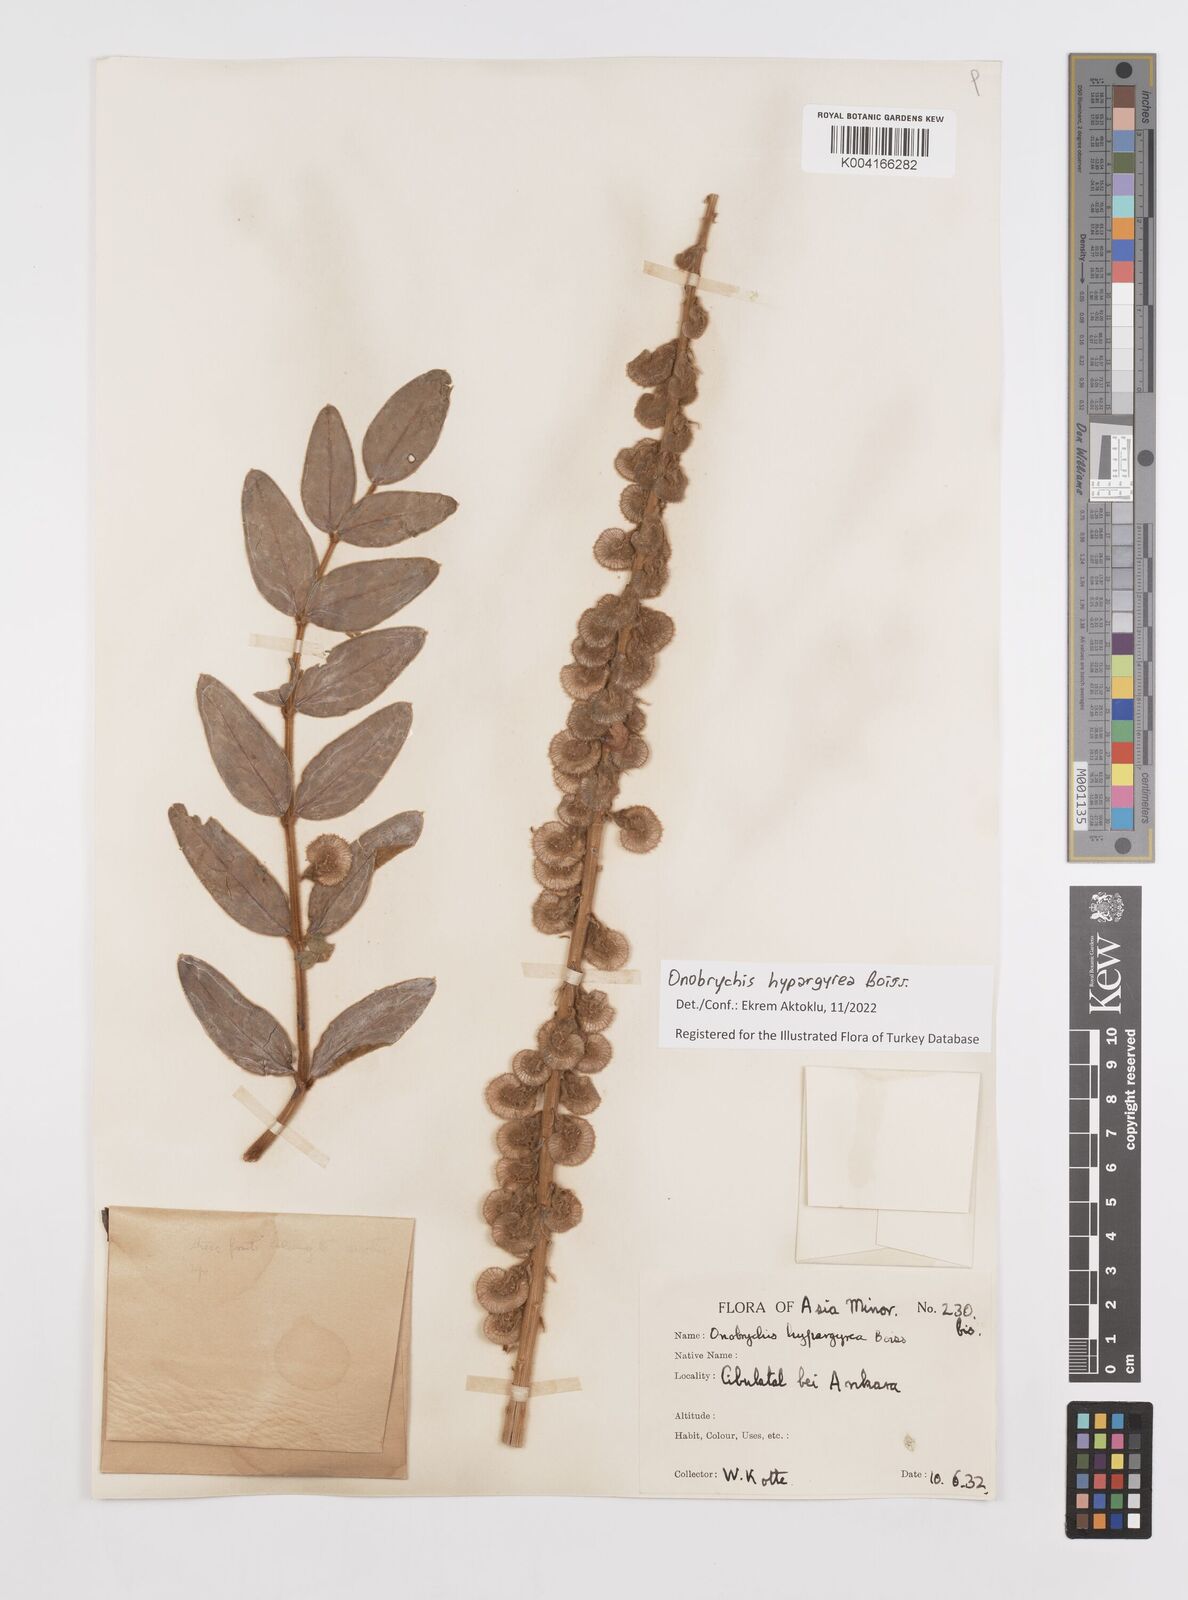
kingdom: Plantae
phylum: Tracheophyta
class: Magnoliopsida
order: Fabales
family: Fabaceae
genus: Onobrychis
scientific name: Onobrychis hypargyrea
